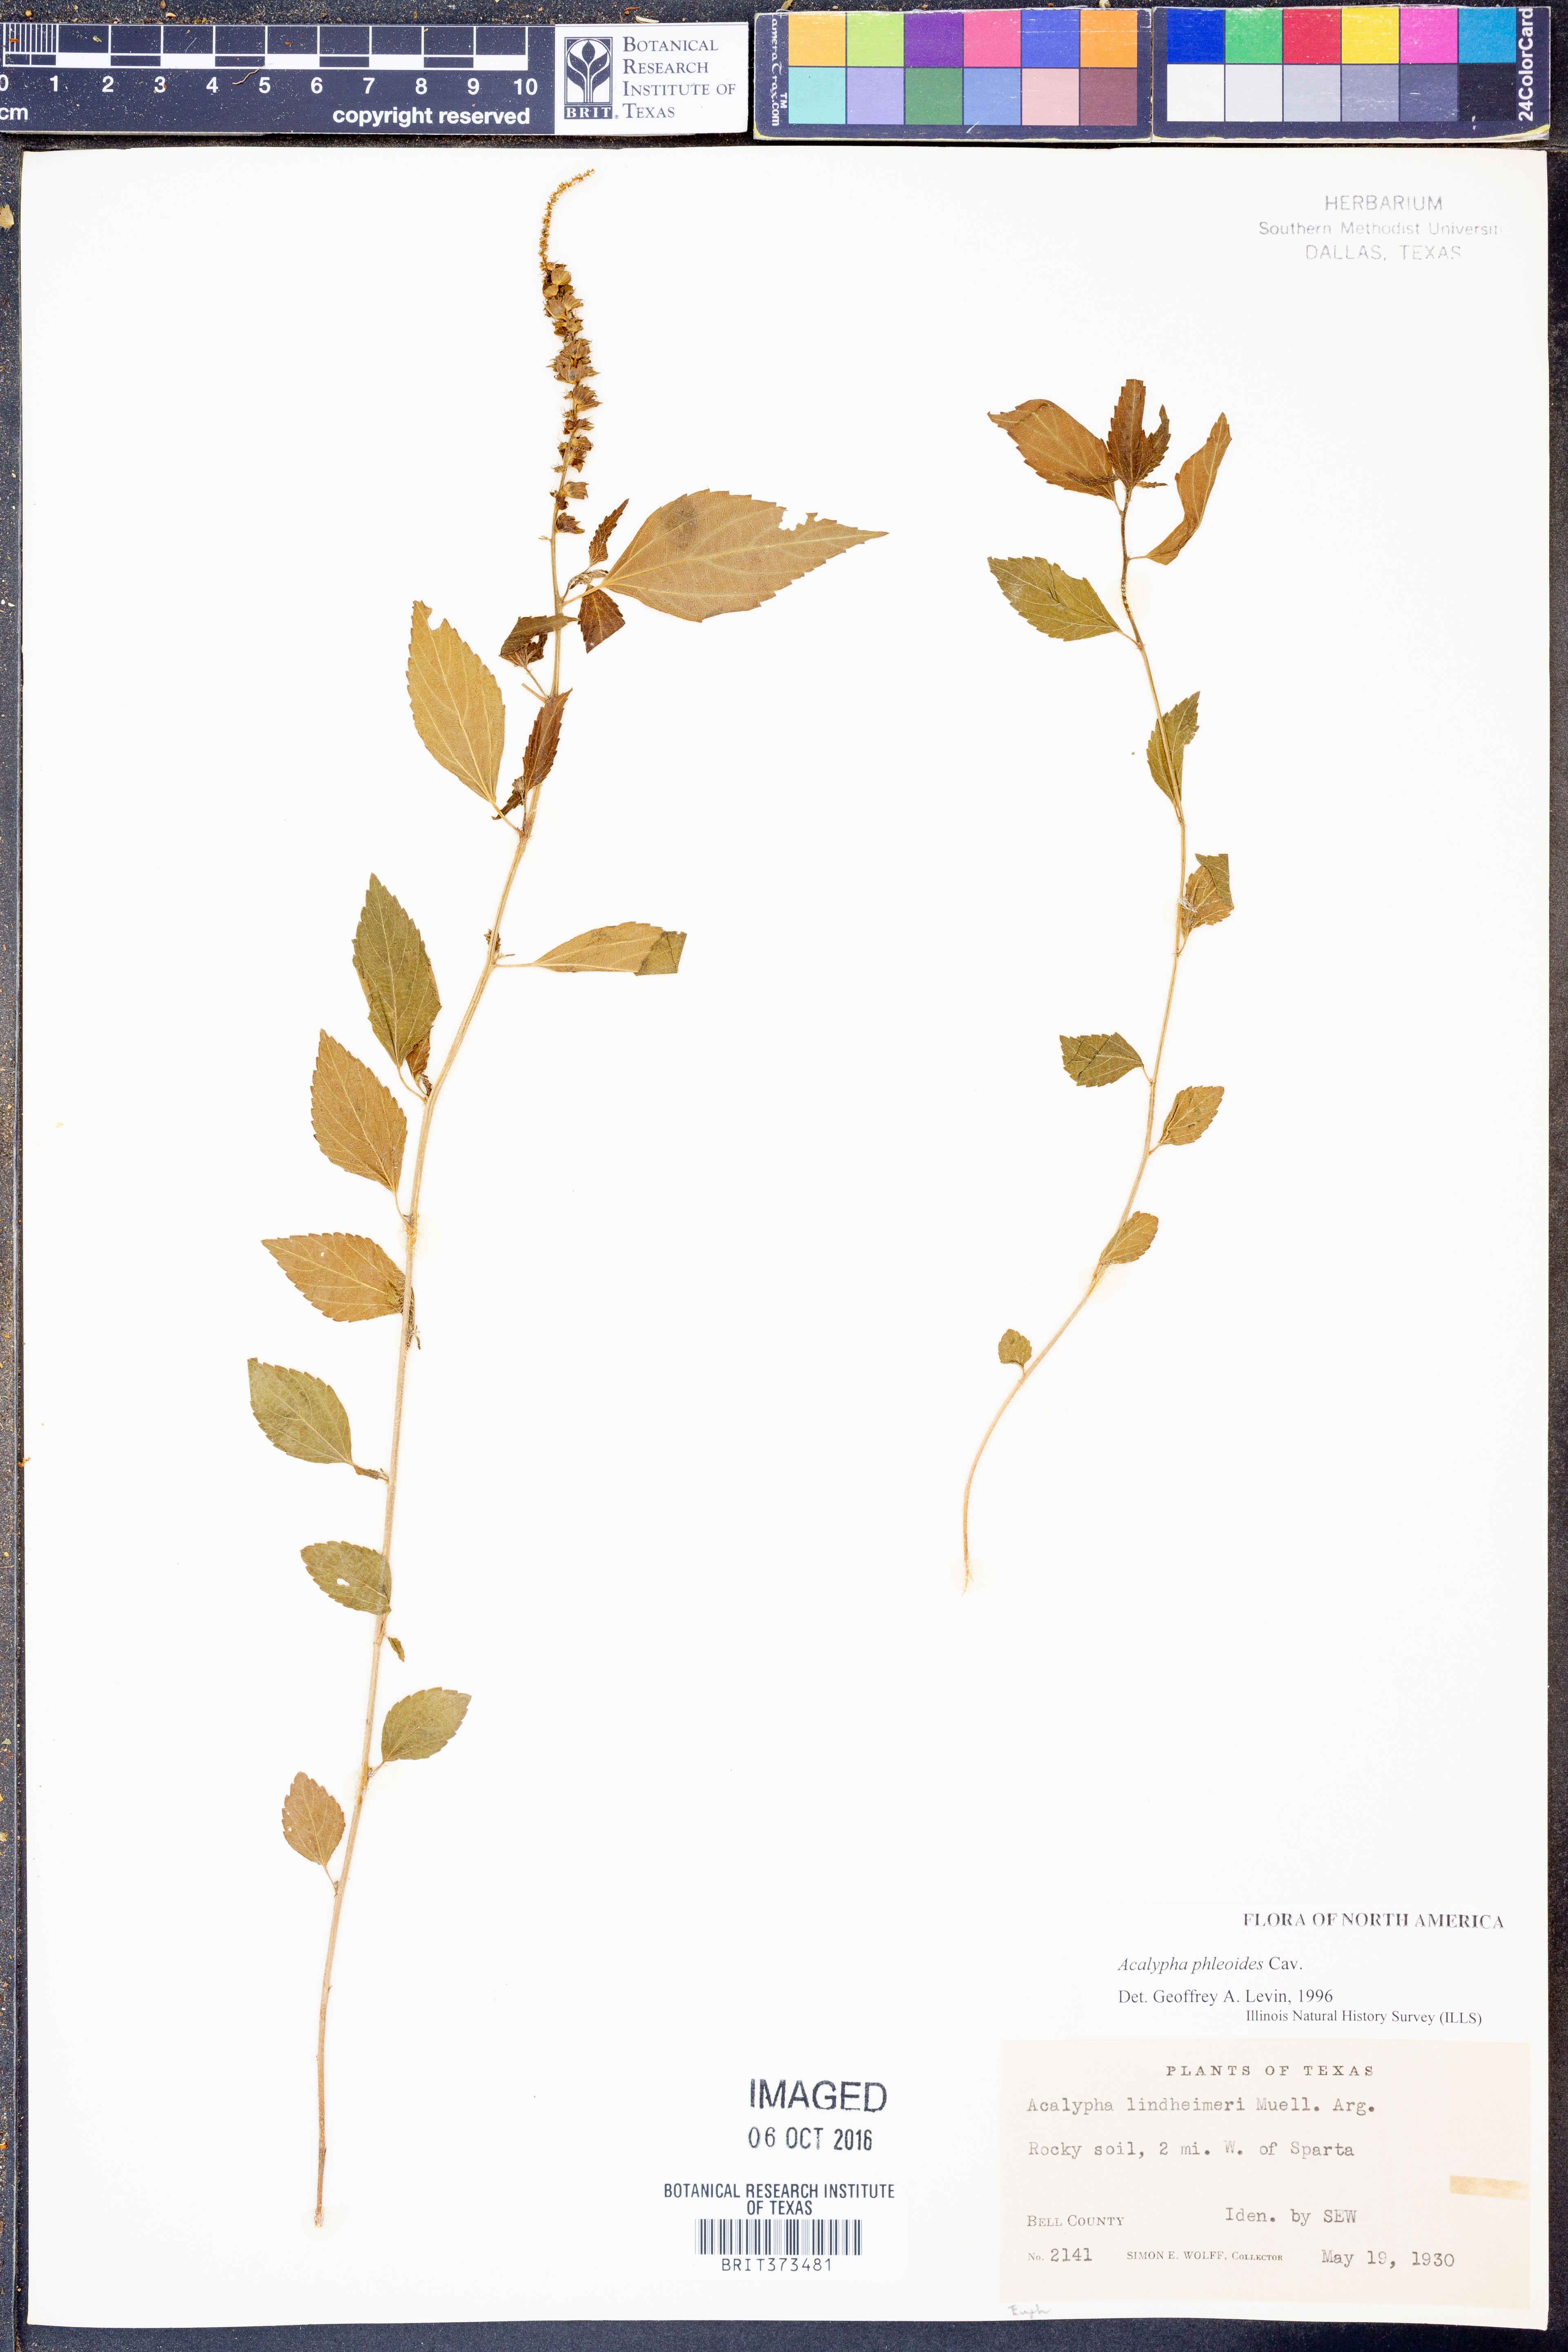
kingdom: Plantae
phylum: Tracheophyta
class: Magnoliopsida
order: Malpighiales
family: Euphorbiaceae
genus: Acalypha
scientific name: Acalypha phleoides
